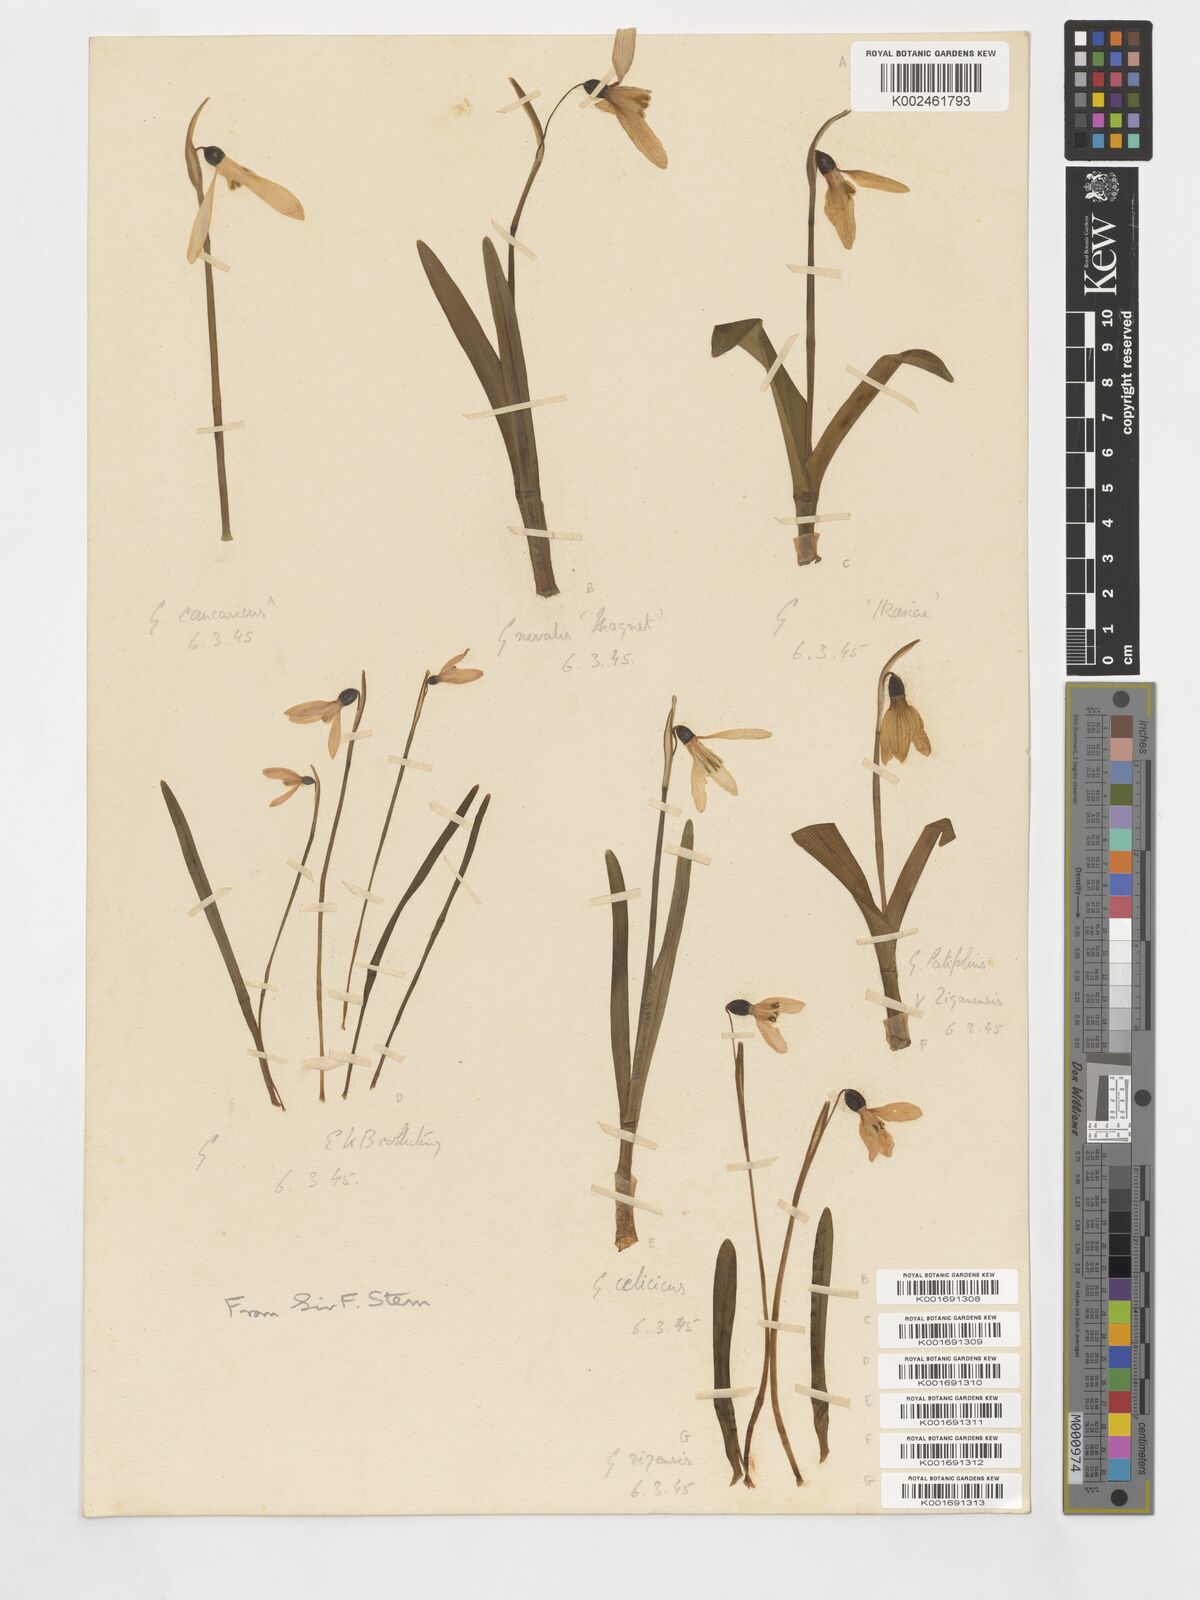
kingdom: Plantae
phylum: Tracheophyta
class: Liliopsida
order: Asparagales
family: Amaryllidaceae
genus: Galanthus
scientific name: Galanthus alpinus
